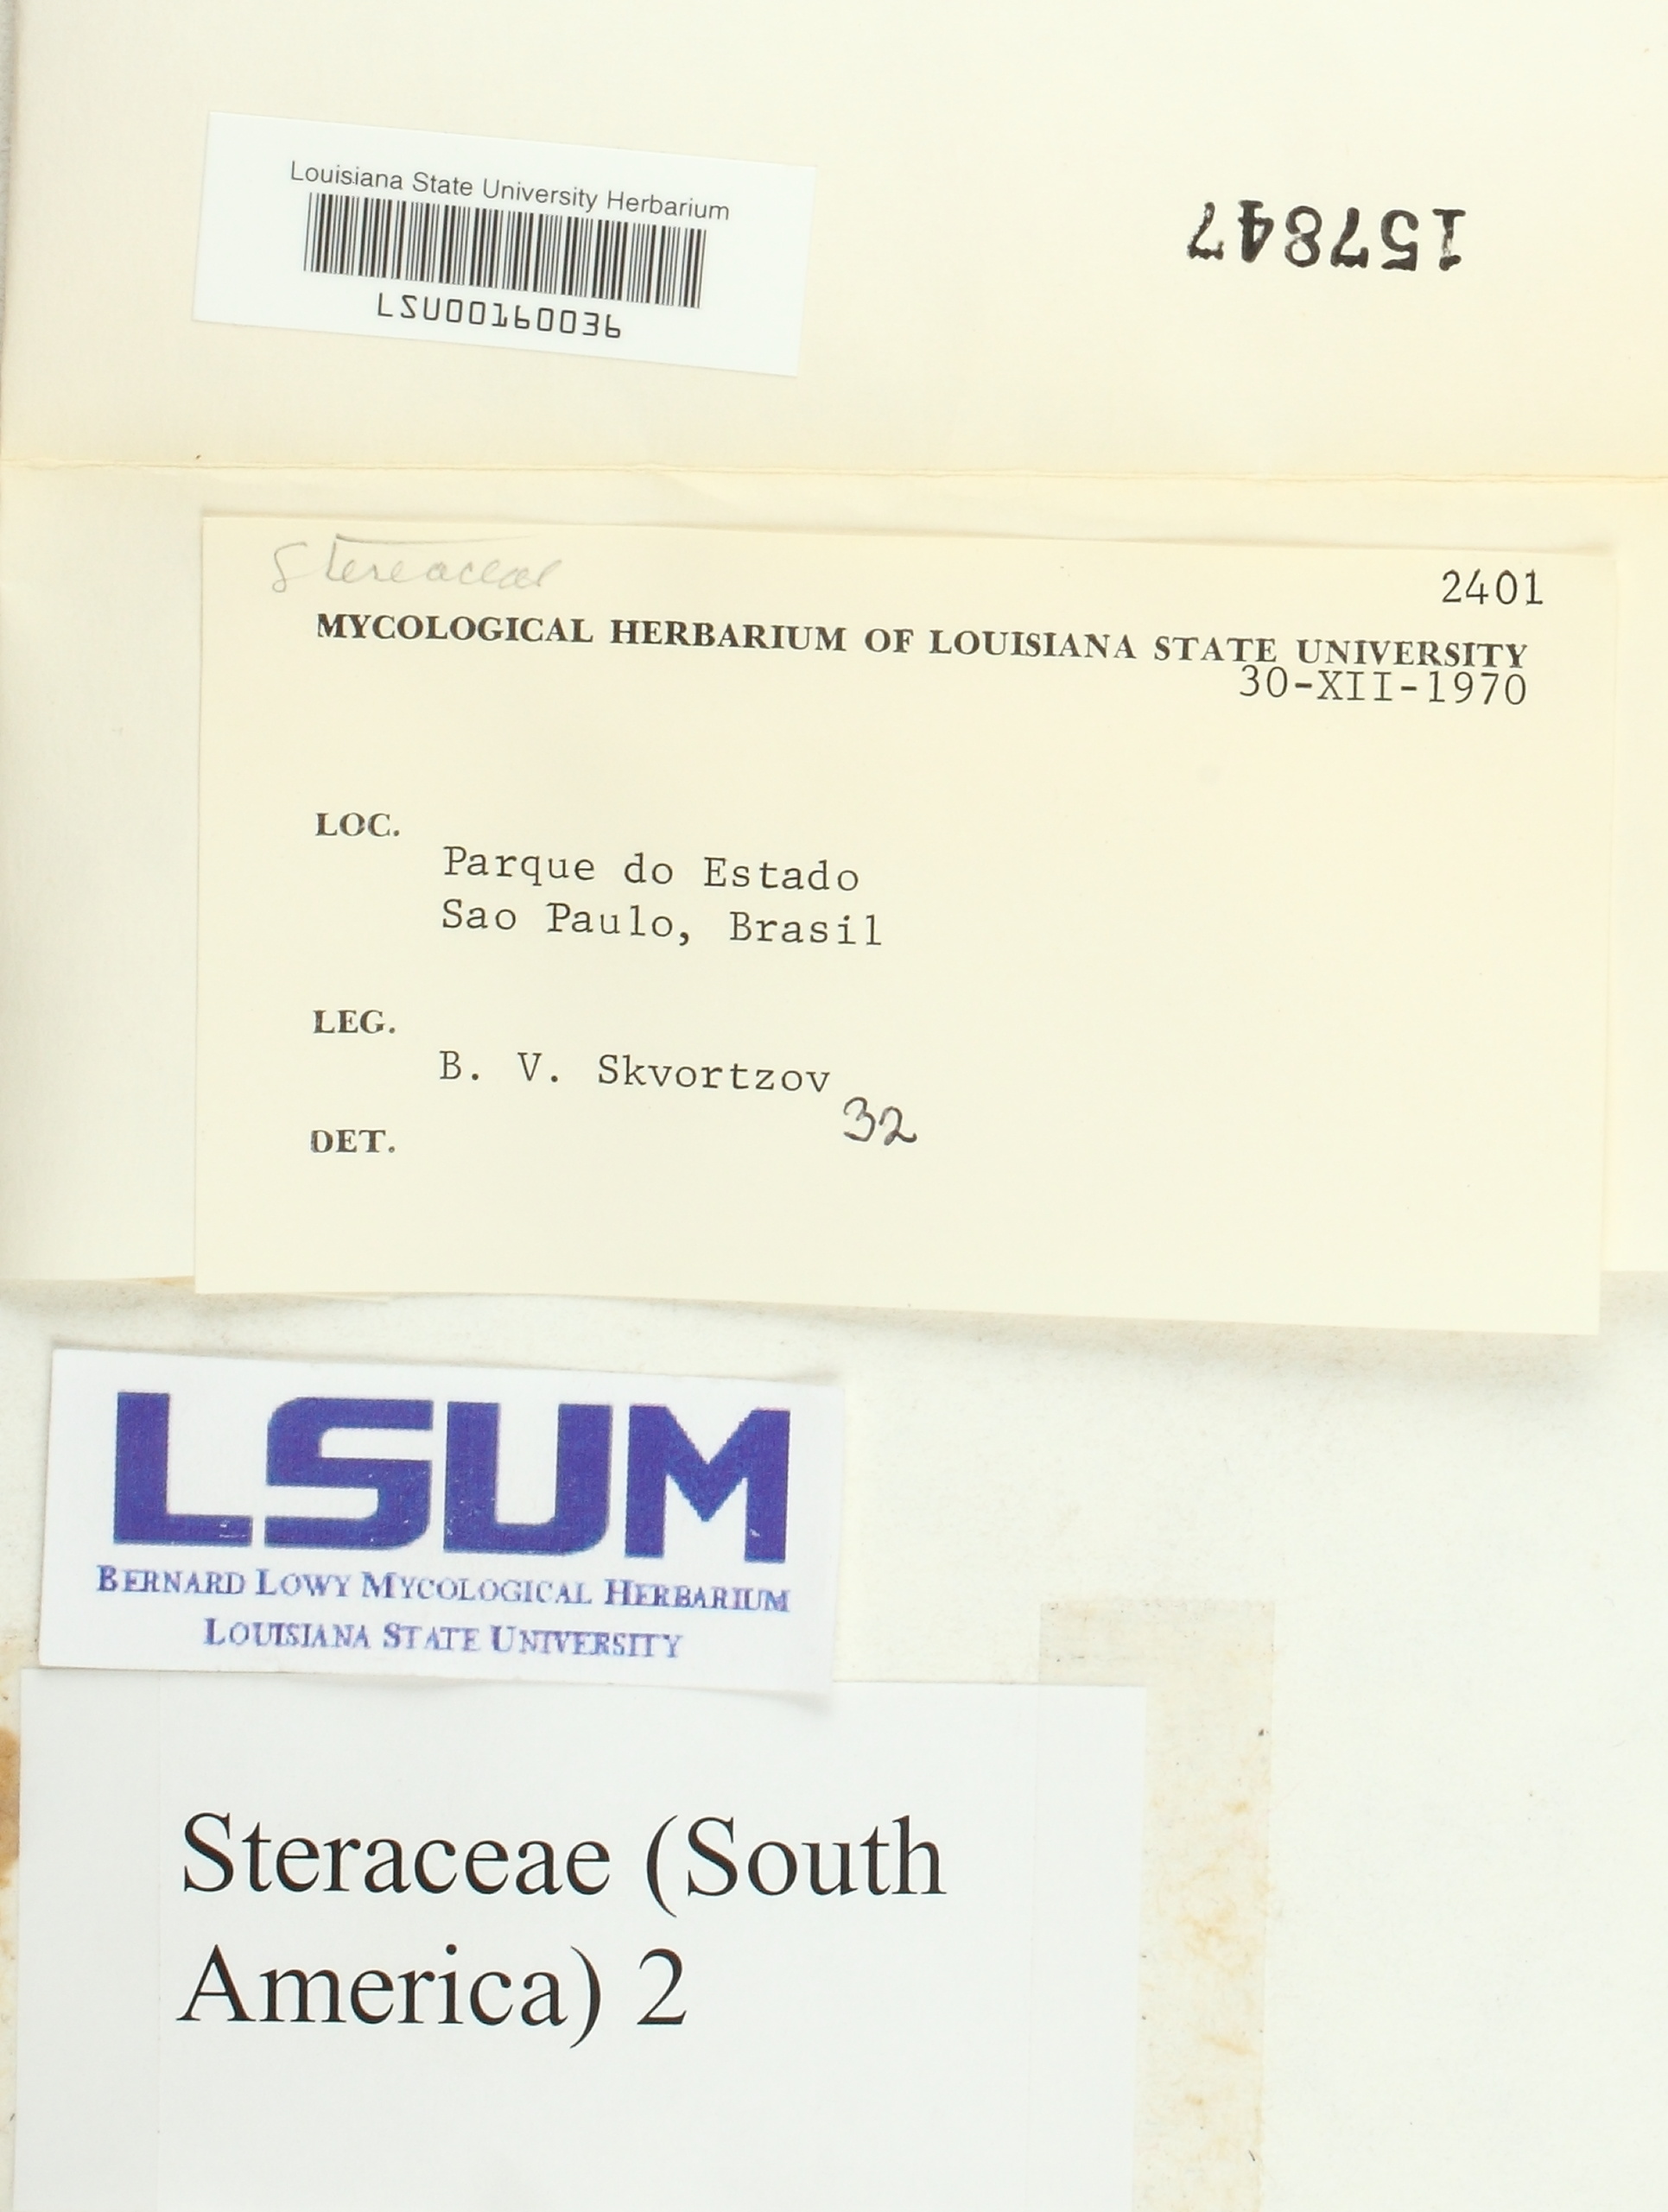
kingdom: Fungi
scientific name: Fungi
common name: Fungi
